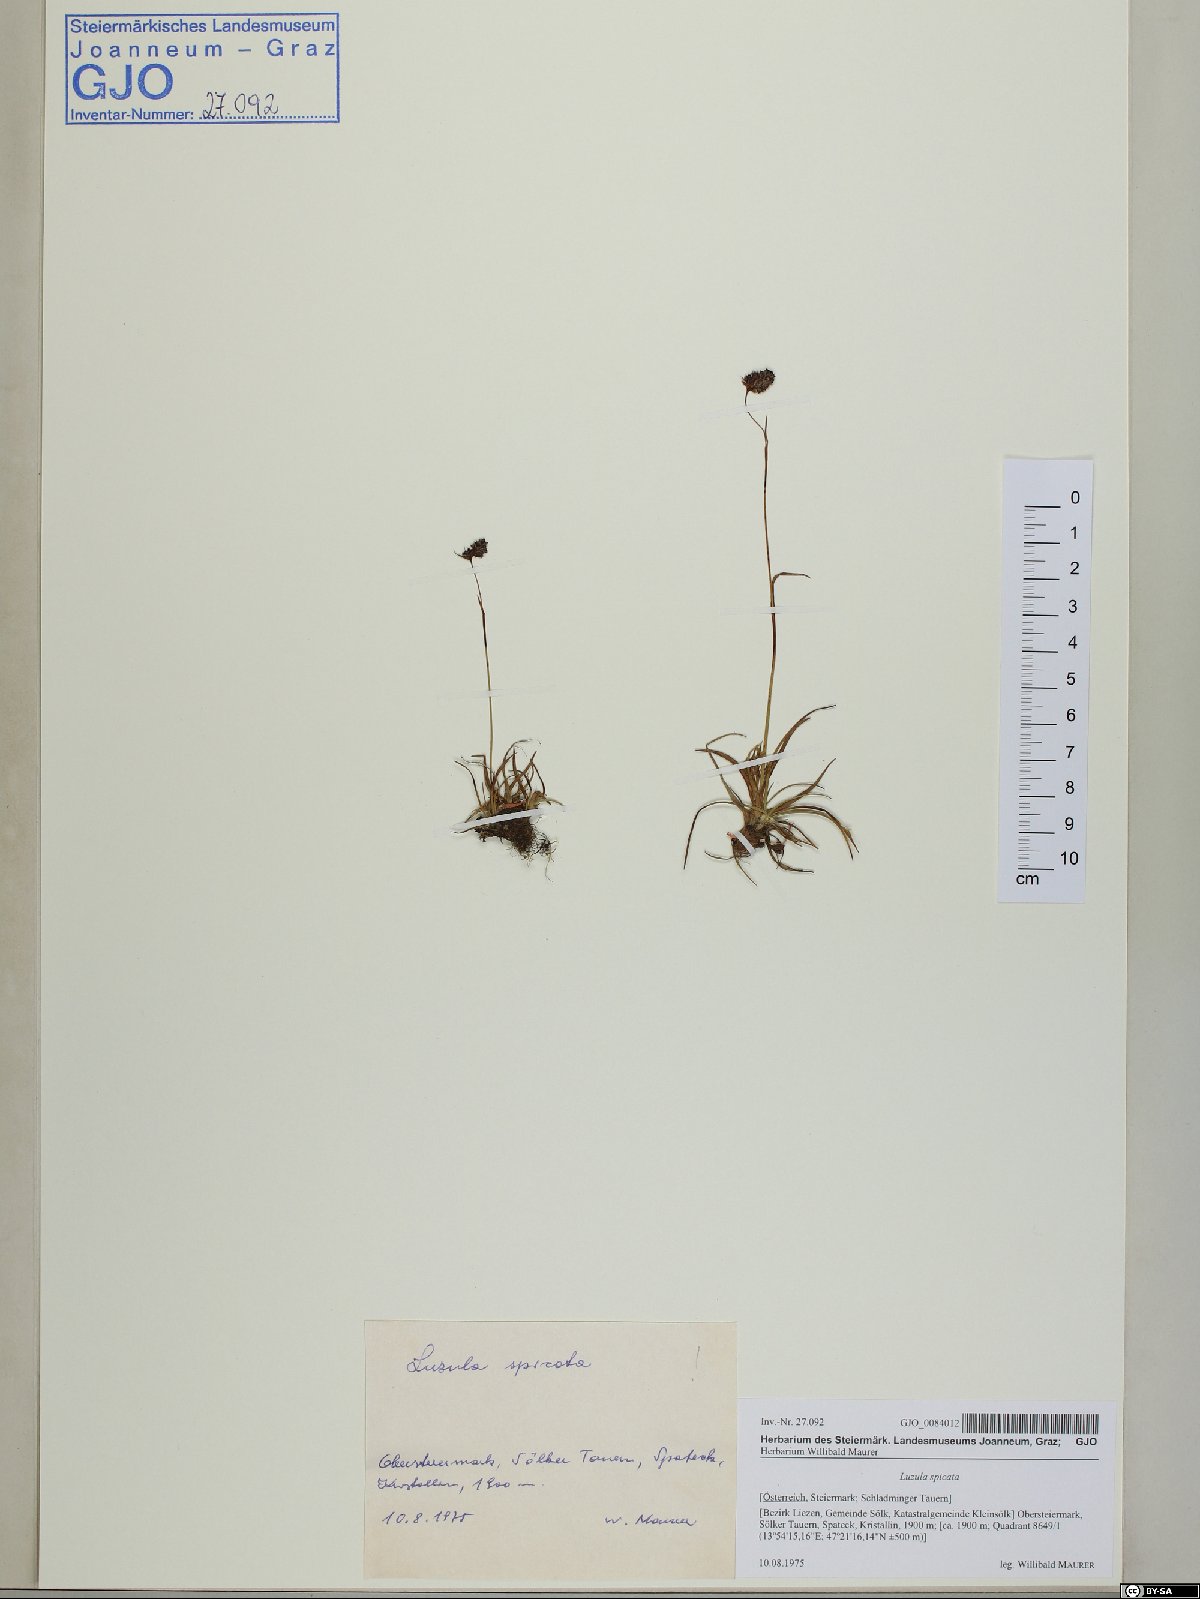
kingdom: Plantae
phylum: Tracheophyta
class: Liliopsida
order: Poales
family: Juncaceae
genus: Luzula
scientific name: Luzula spicata
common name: Spiked wood-rush
